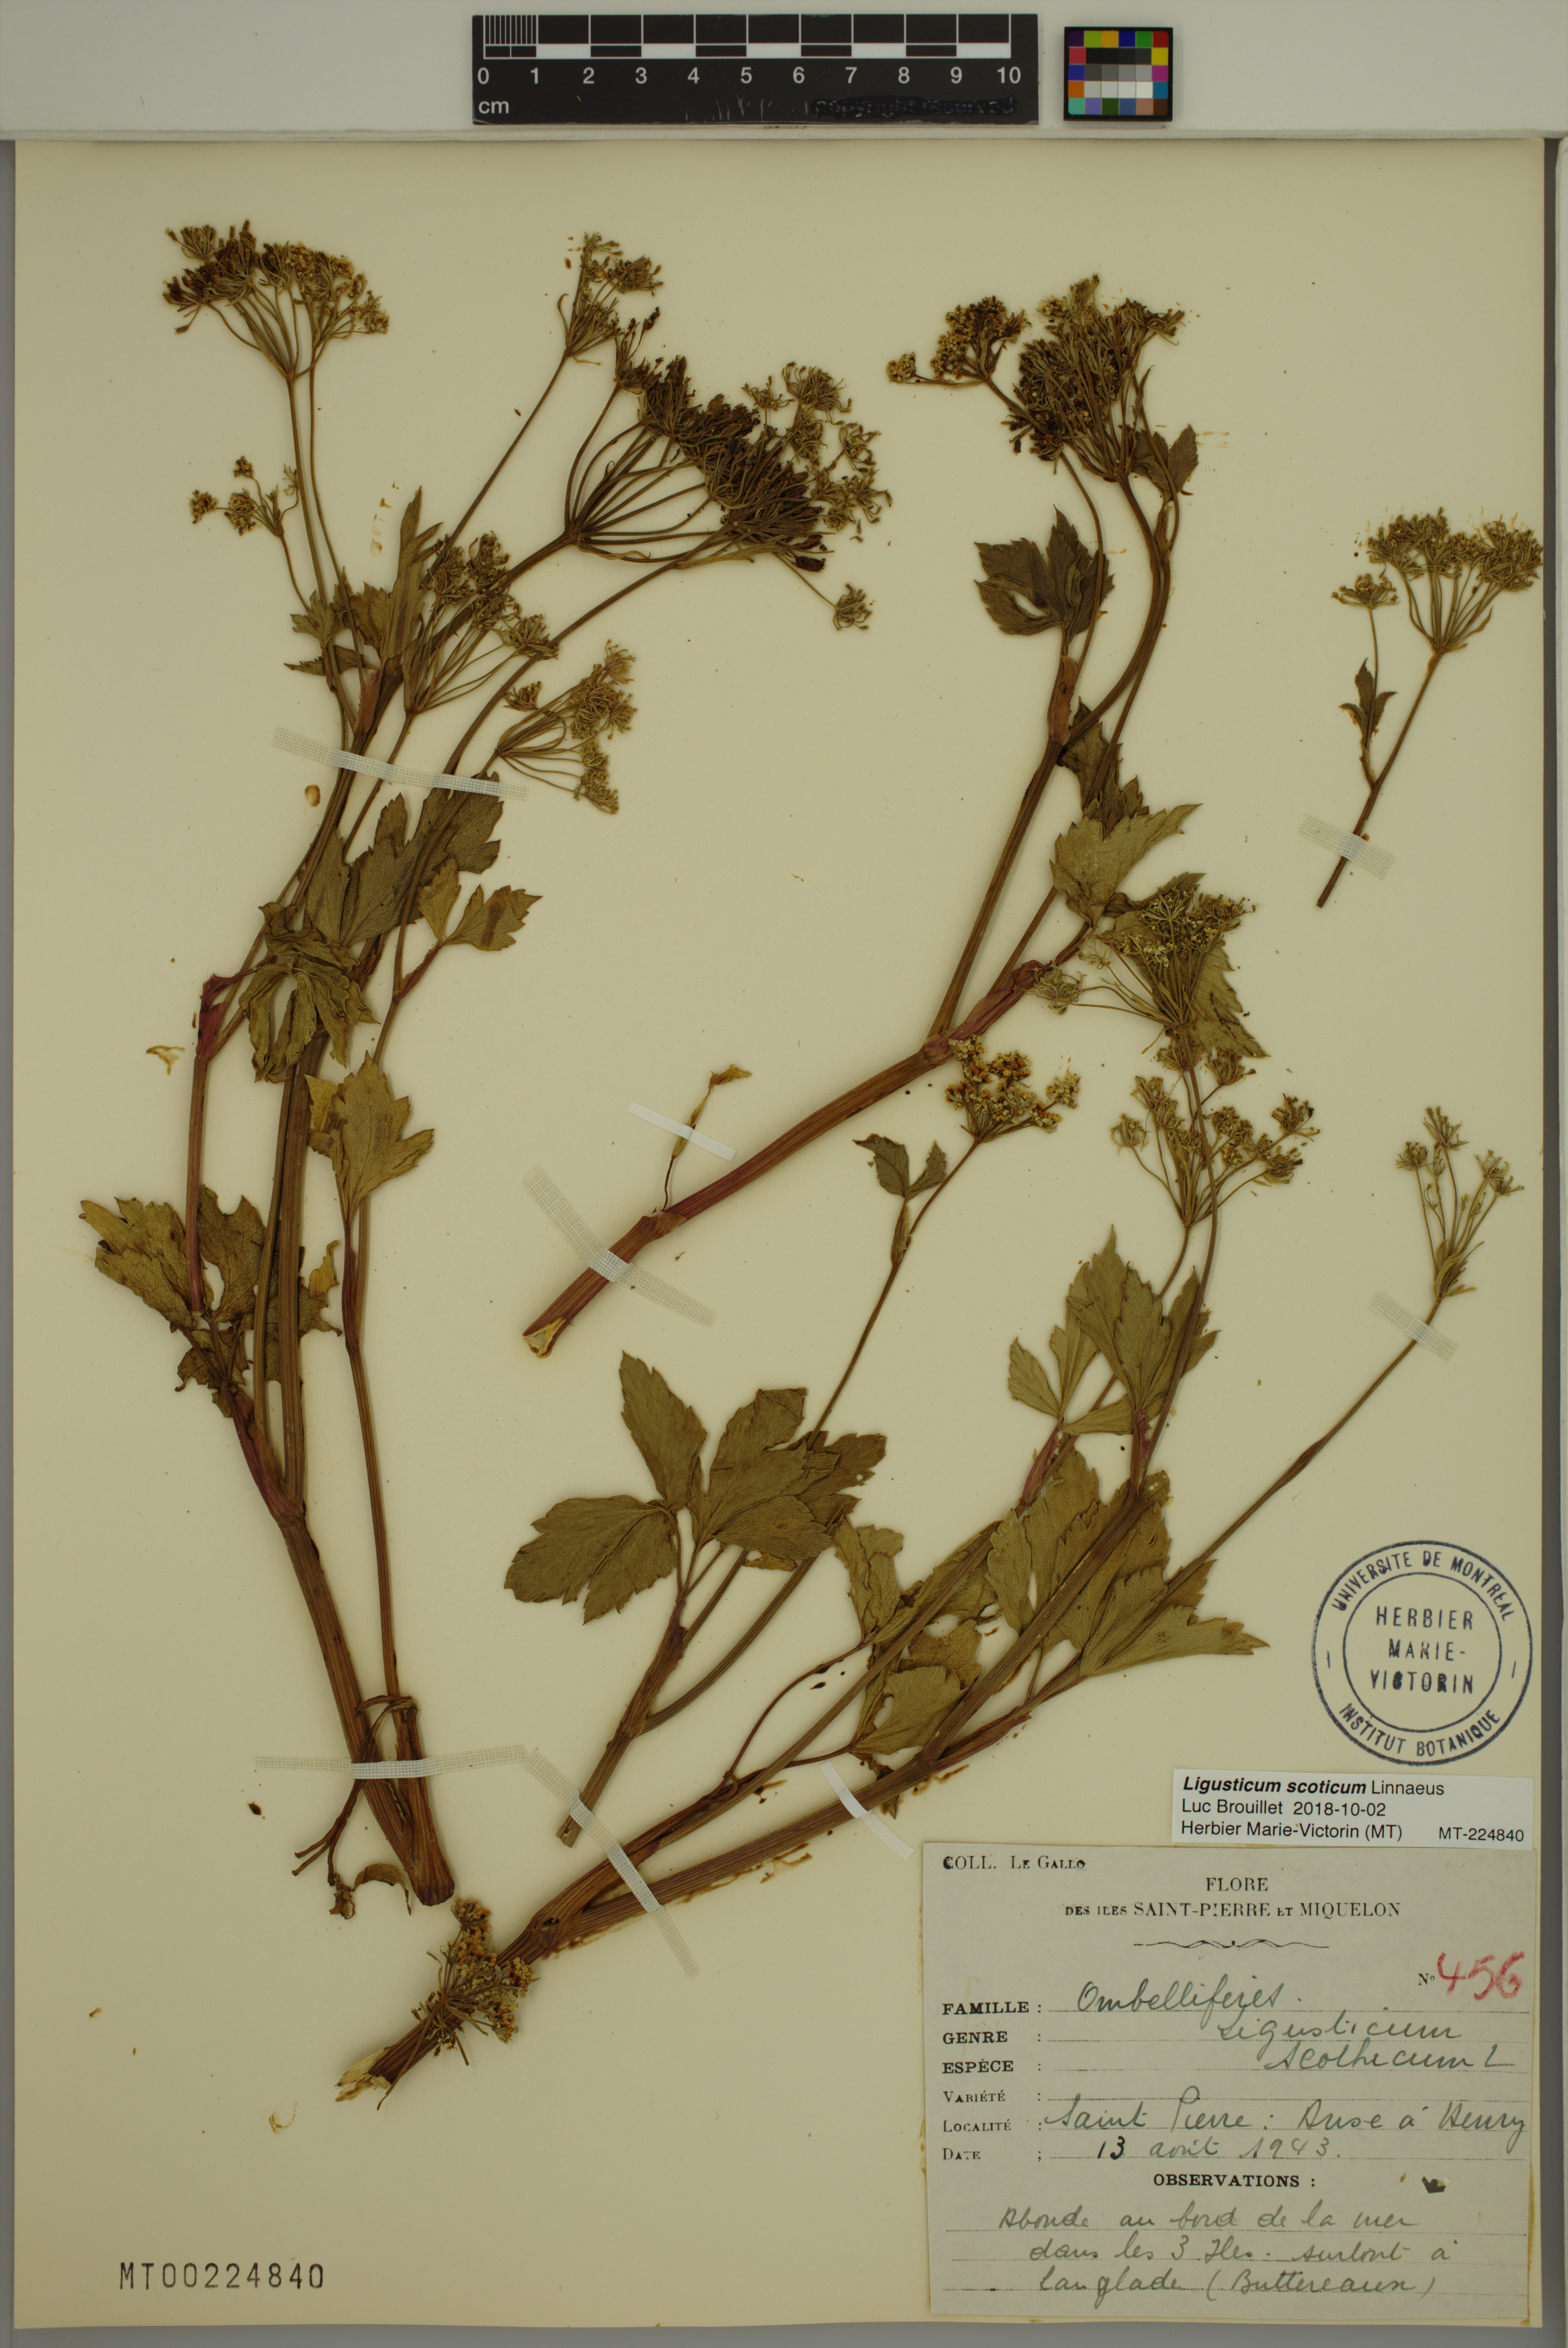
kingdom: Plantae
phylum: Tracheophyta
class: Magnoliopsida
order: Apiales
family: Apiaceae
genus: Ligusticum
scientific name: Ligusticum scothicum
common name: Beach lovage
